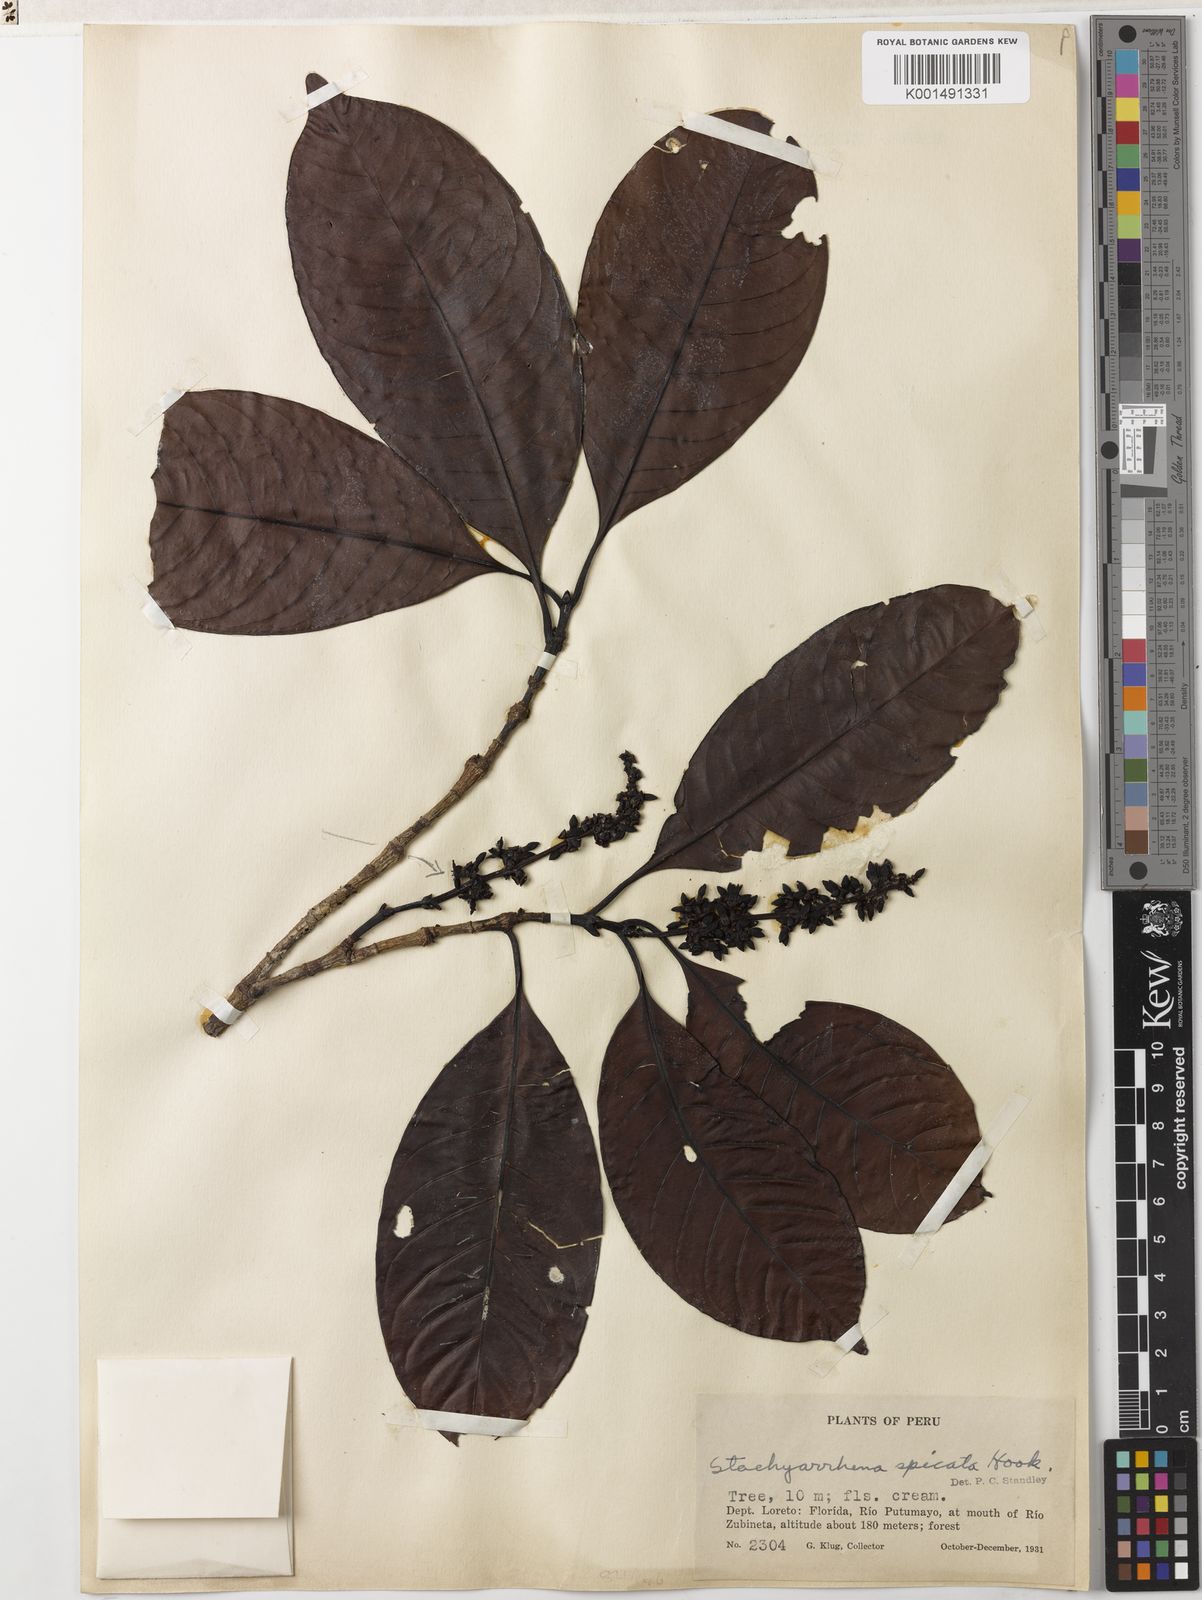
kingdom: Plantae
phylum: Tracheophyta
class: Magnoliopsida
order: Gentianales
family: Rubiaceae
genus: Stachyarrhena
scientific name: Stachyarrhena spicata
